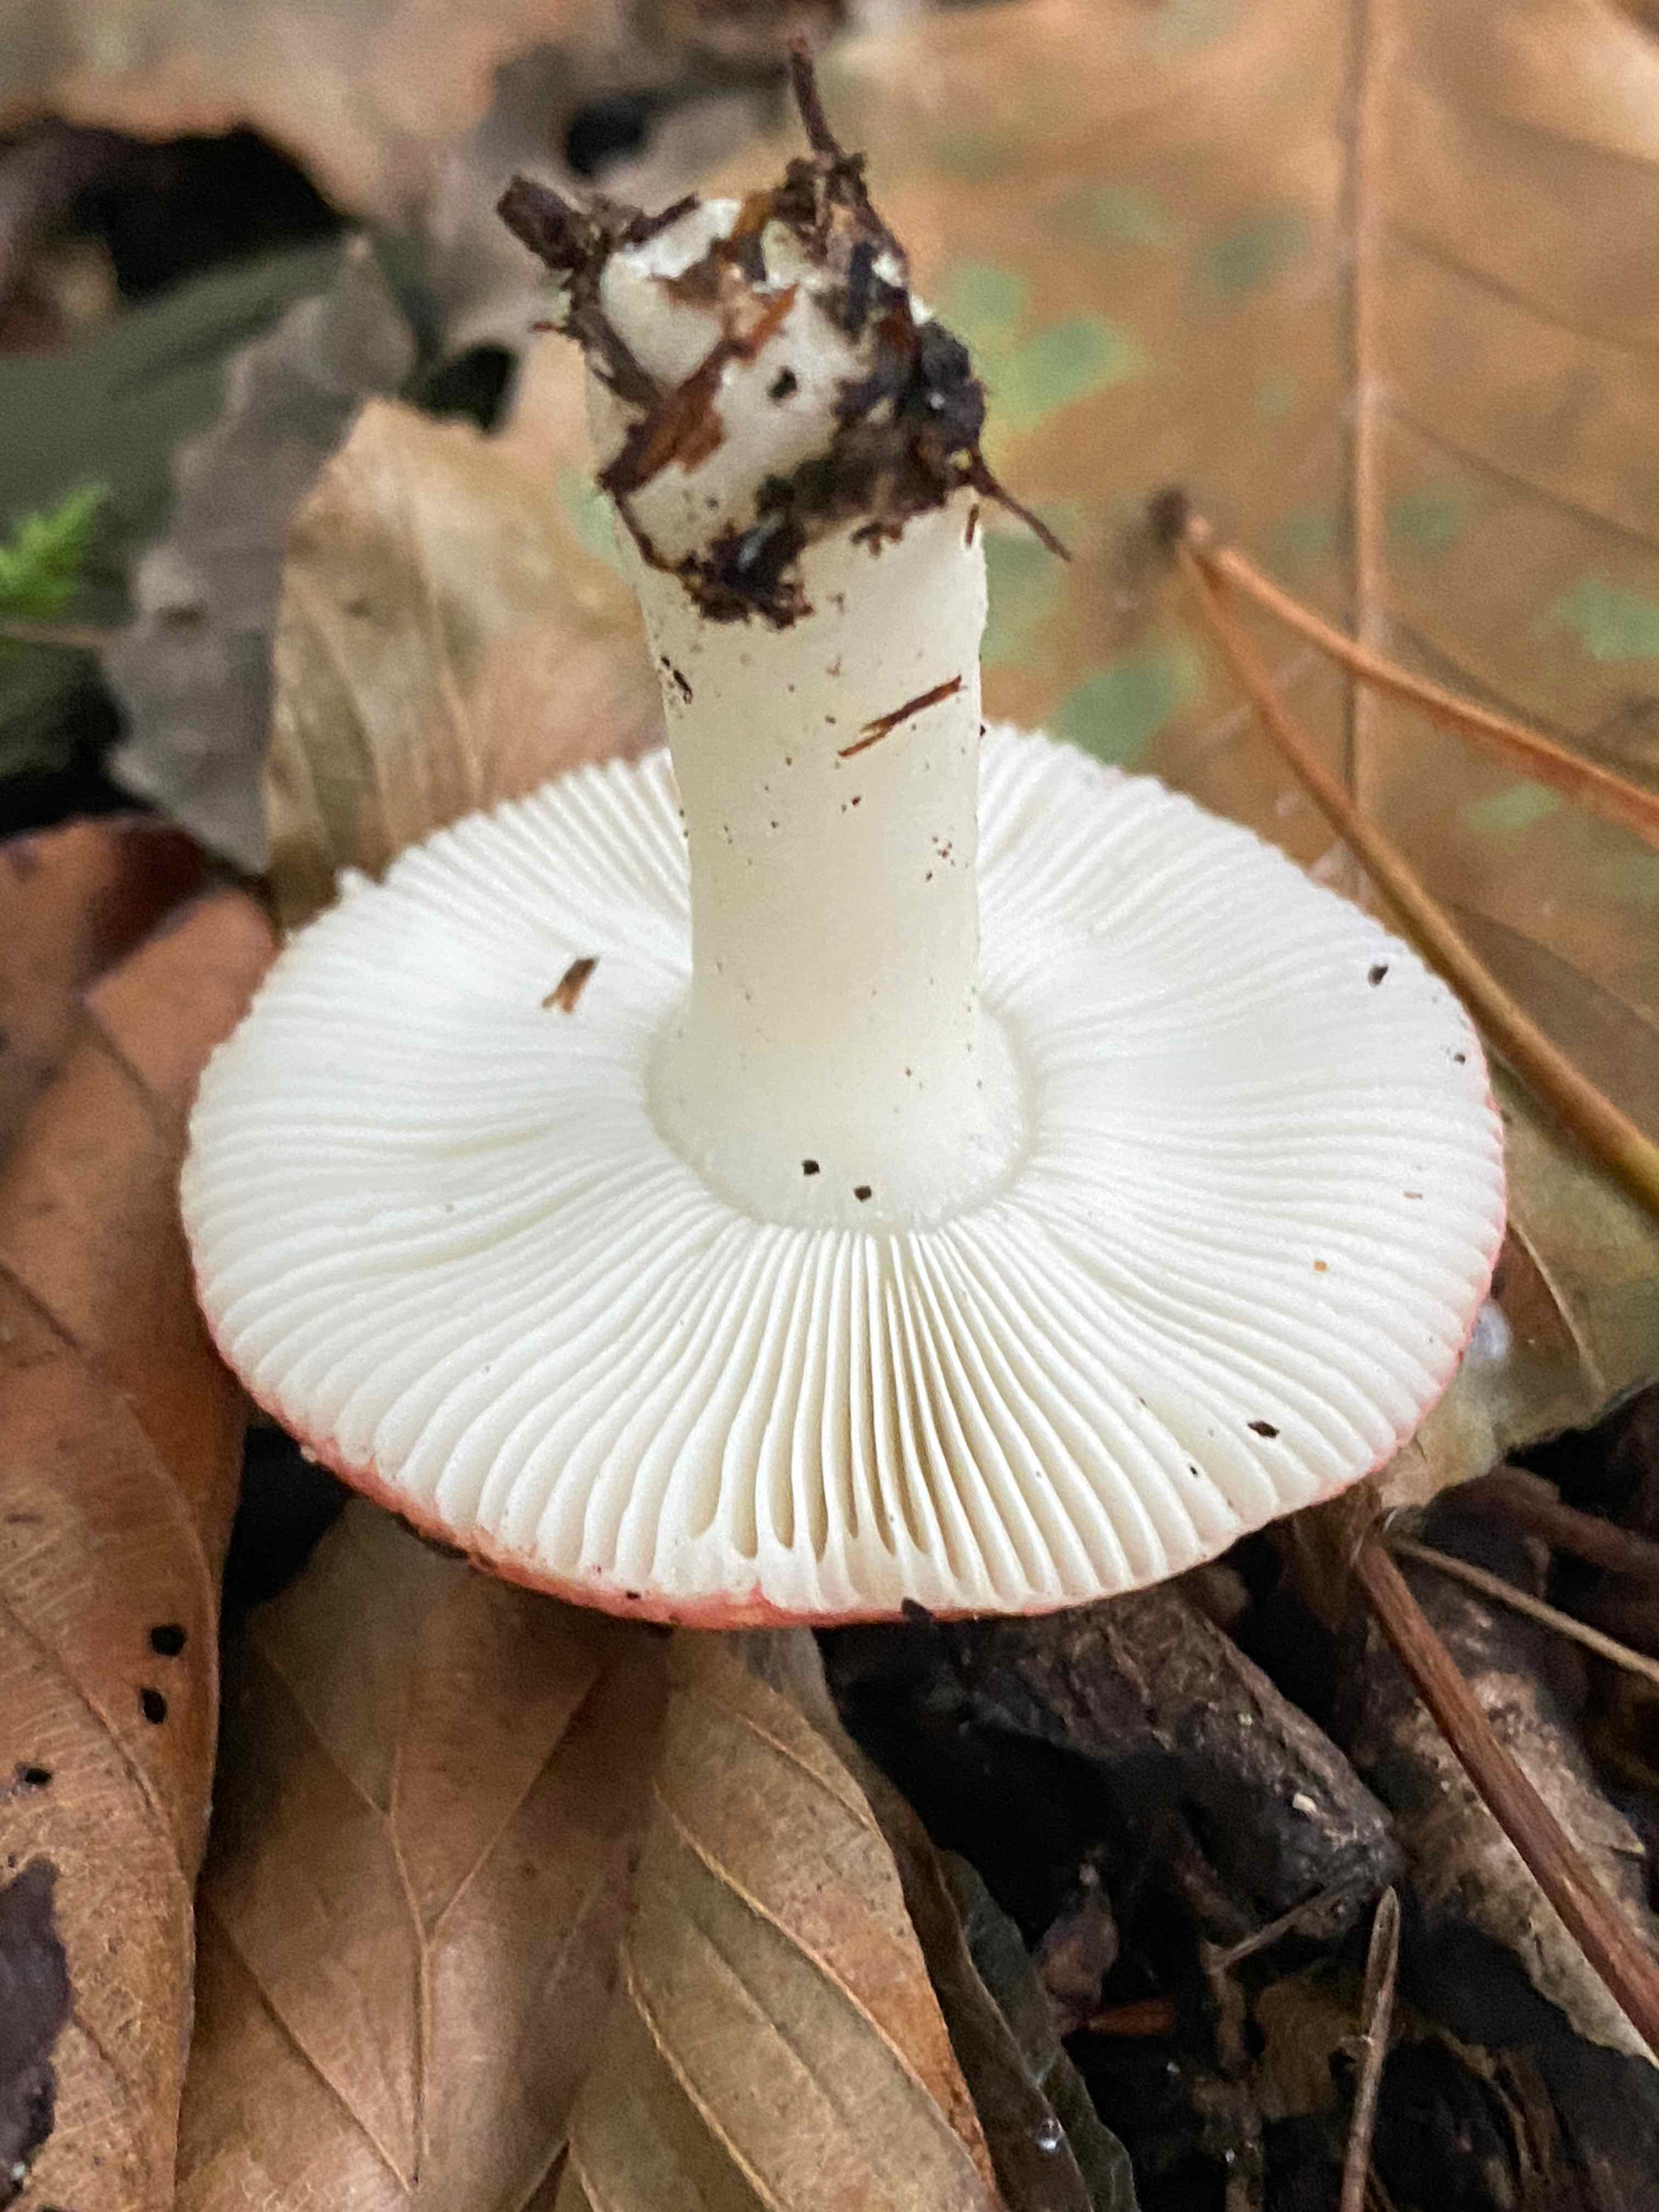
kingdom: Fungi
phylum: Basidiomycota
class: Agaricomycetes
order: Russulales
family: Russulaceae
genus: Russula
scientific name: Russula
